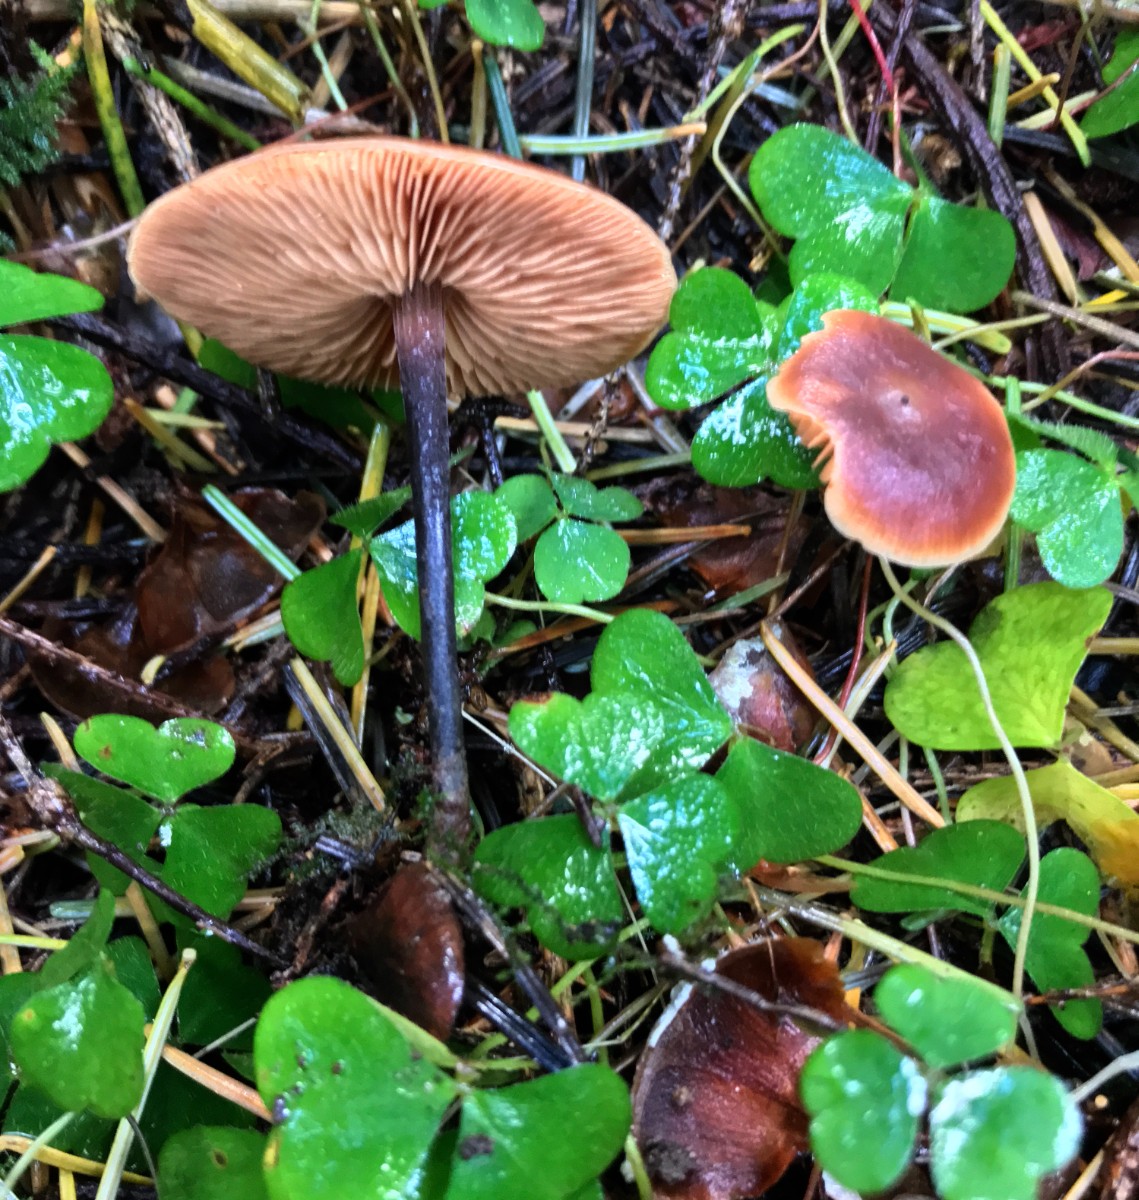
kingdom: Fungi
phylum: Basidiomycota
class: Agaricomycetes
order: Agaricales
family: Macrocystidiaceae
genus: Macrocystidia
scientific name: Macrocystidia cucumis
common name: agurkehat
